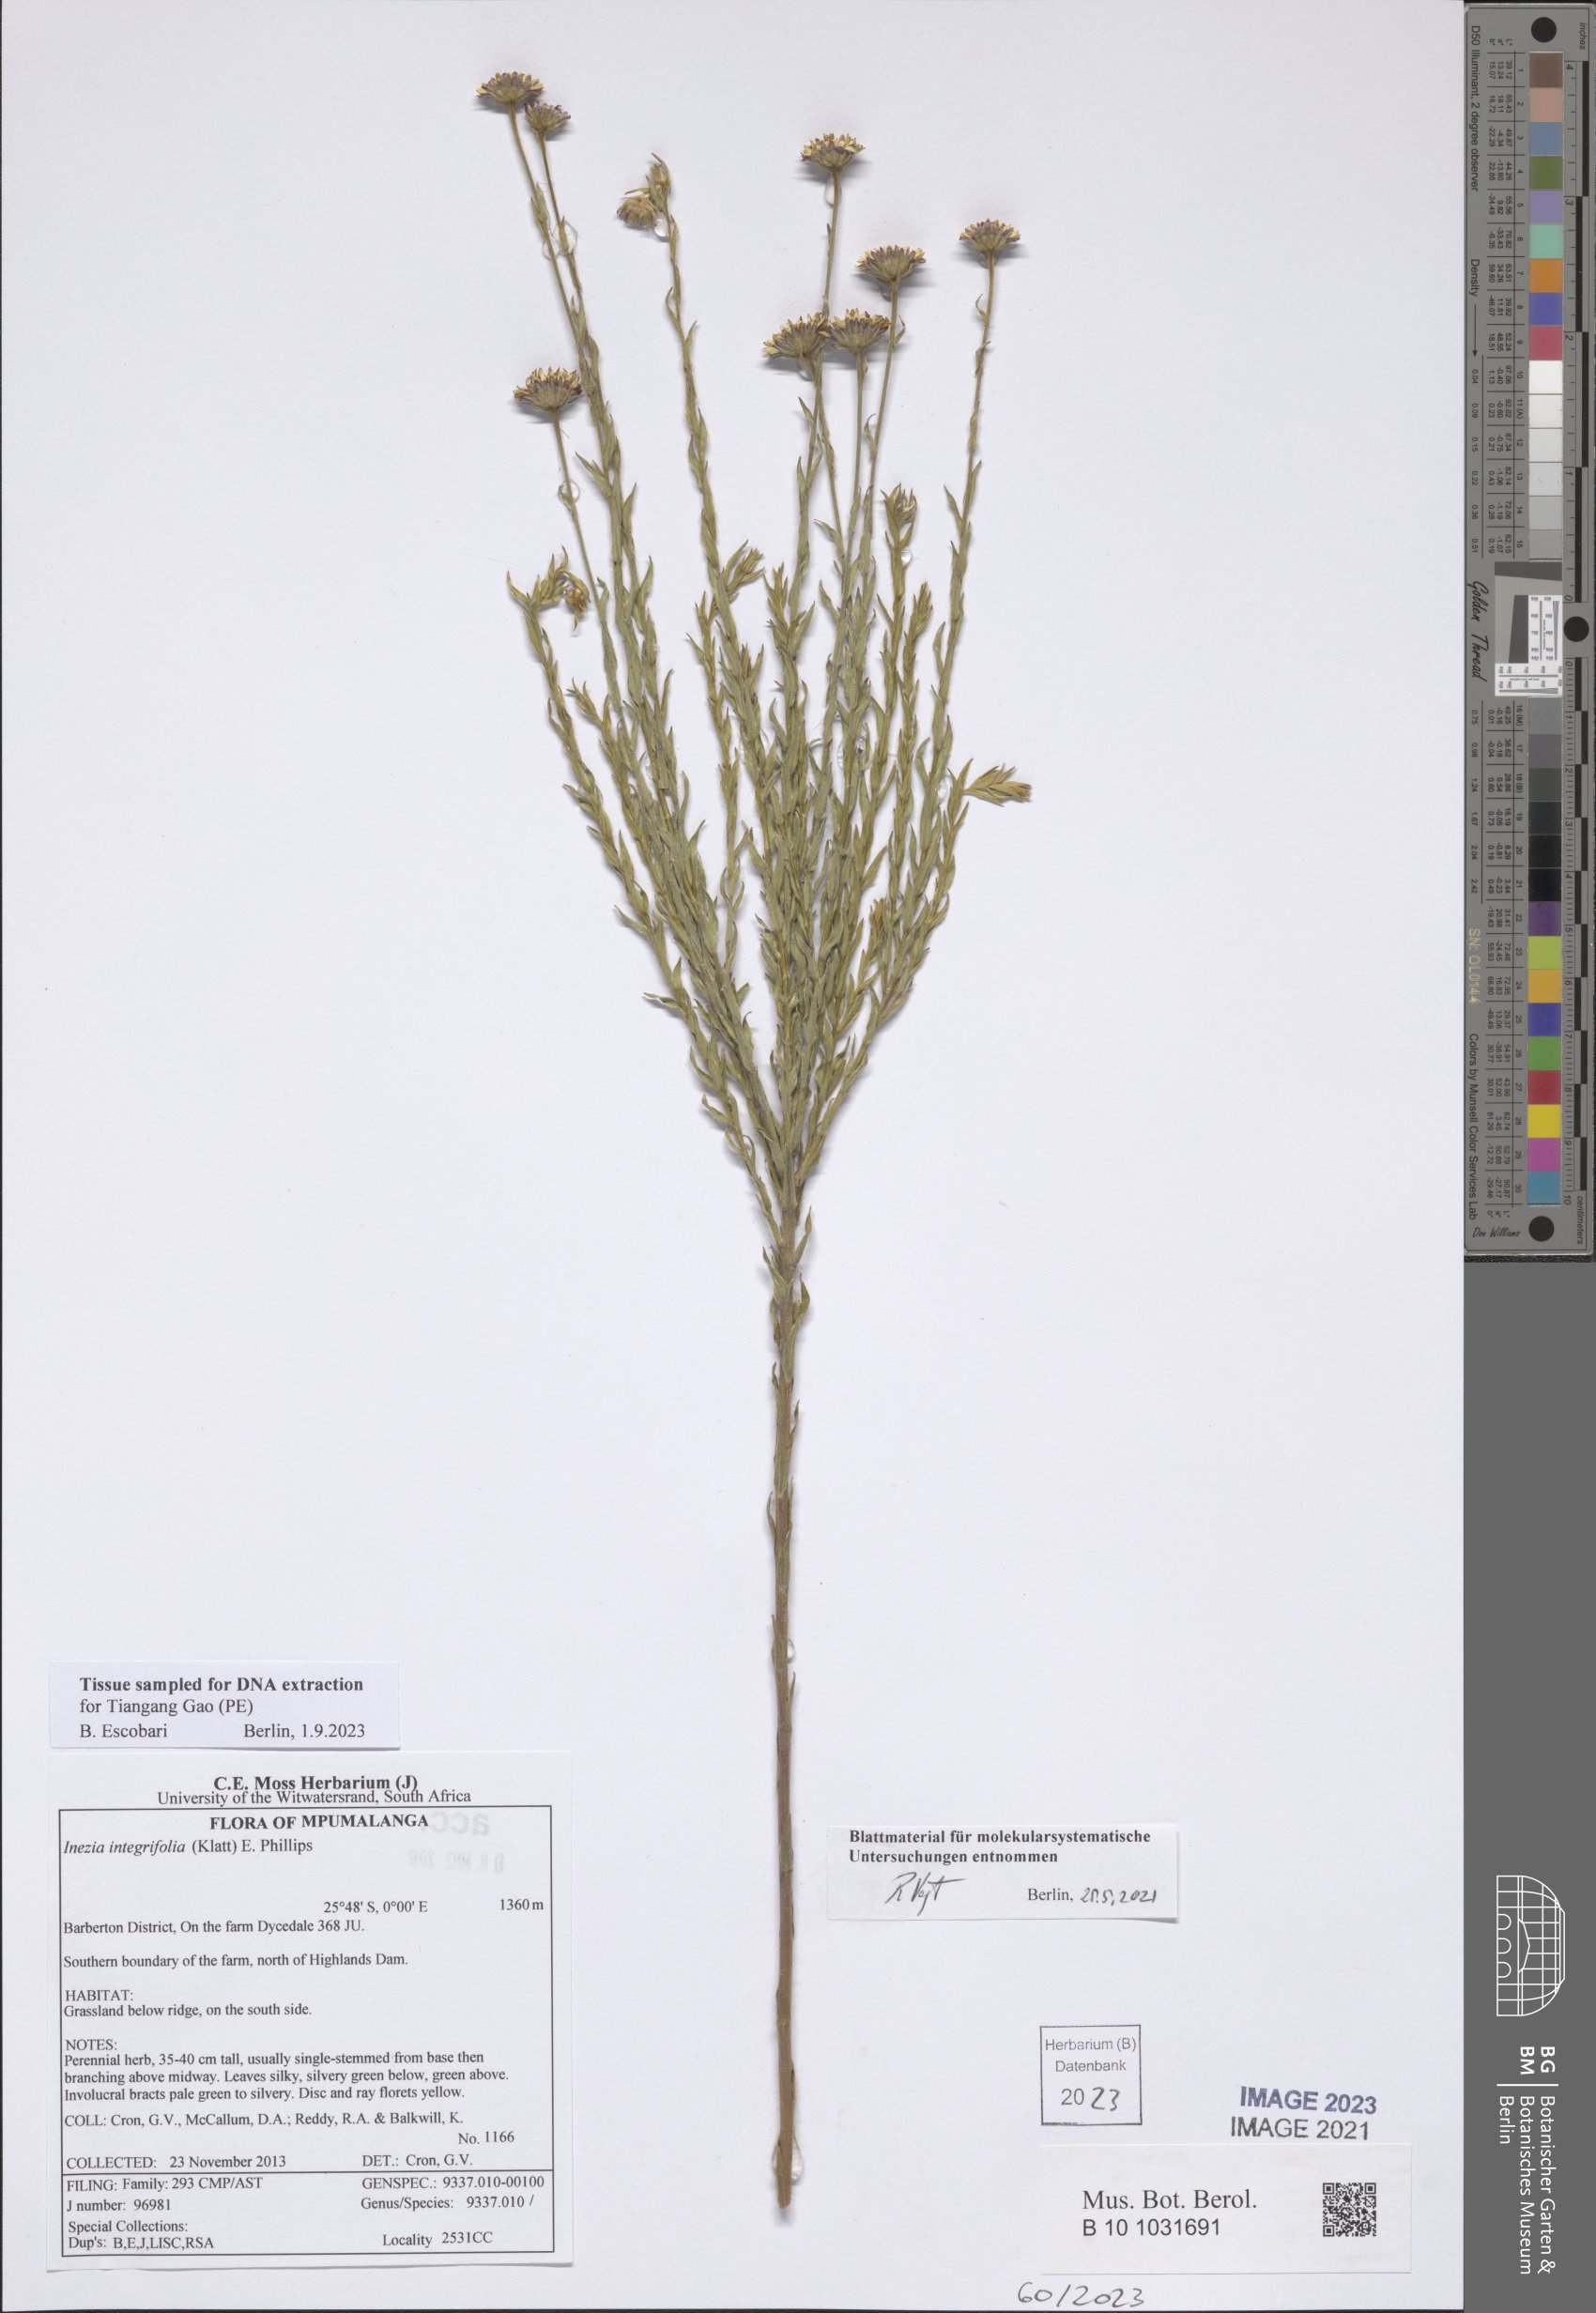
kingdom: Plantae
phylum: Tracheophyta
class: Magnoliopsida
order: Asterales
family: Asteraceae
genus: Inezia
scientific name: Inezia integrifolia
